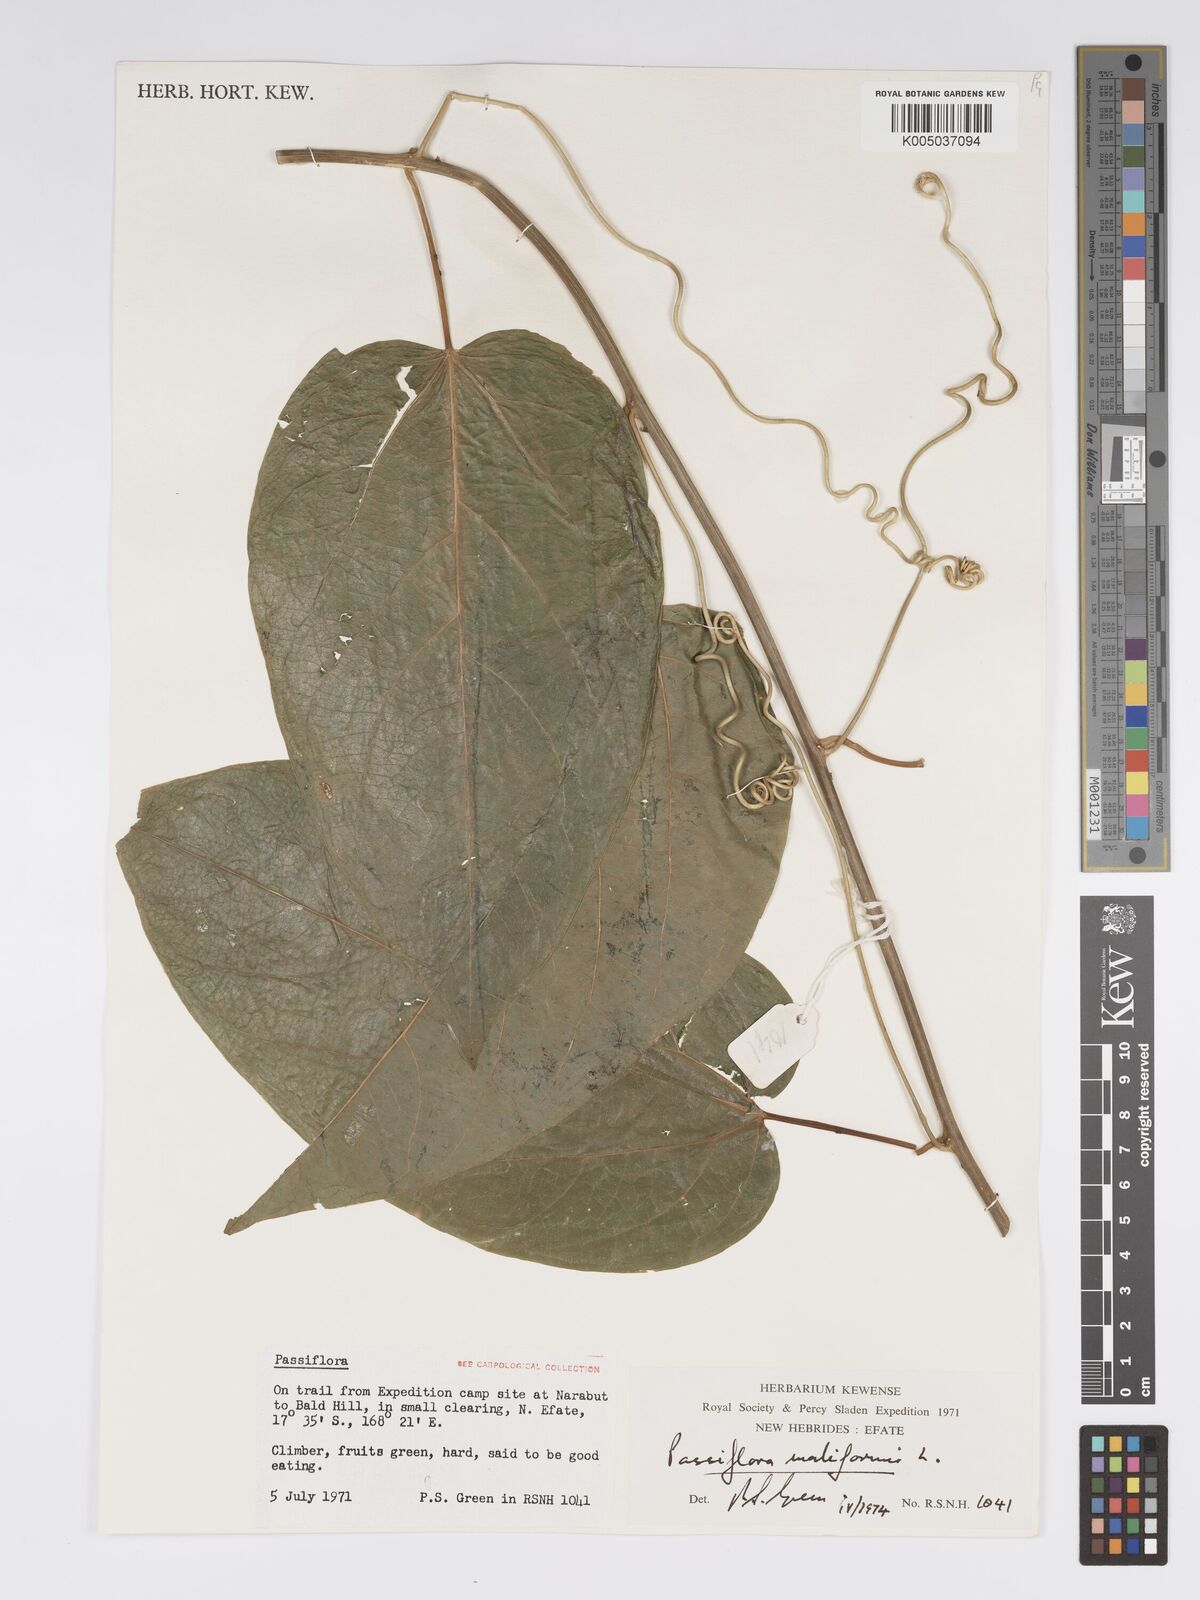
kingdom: Plantae
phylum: Tracheophyta
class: Magnoliopsida
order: Malpighiales
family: Passifloraceae
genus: Passiflora
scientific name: Passiflora
